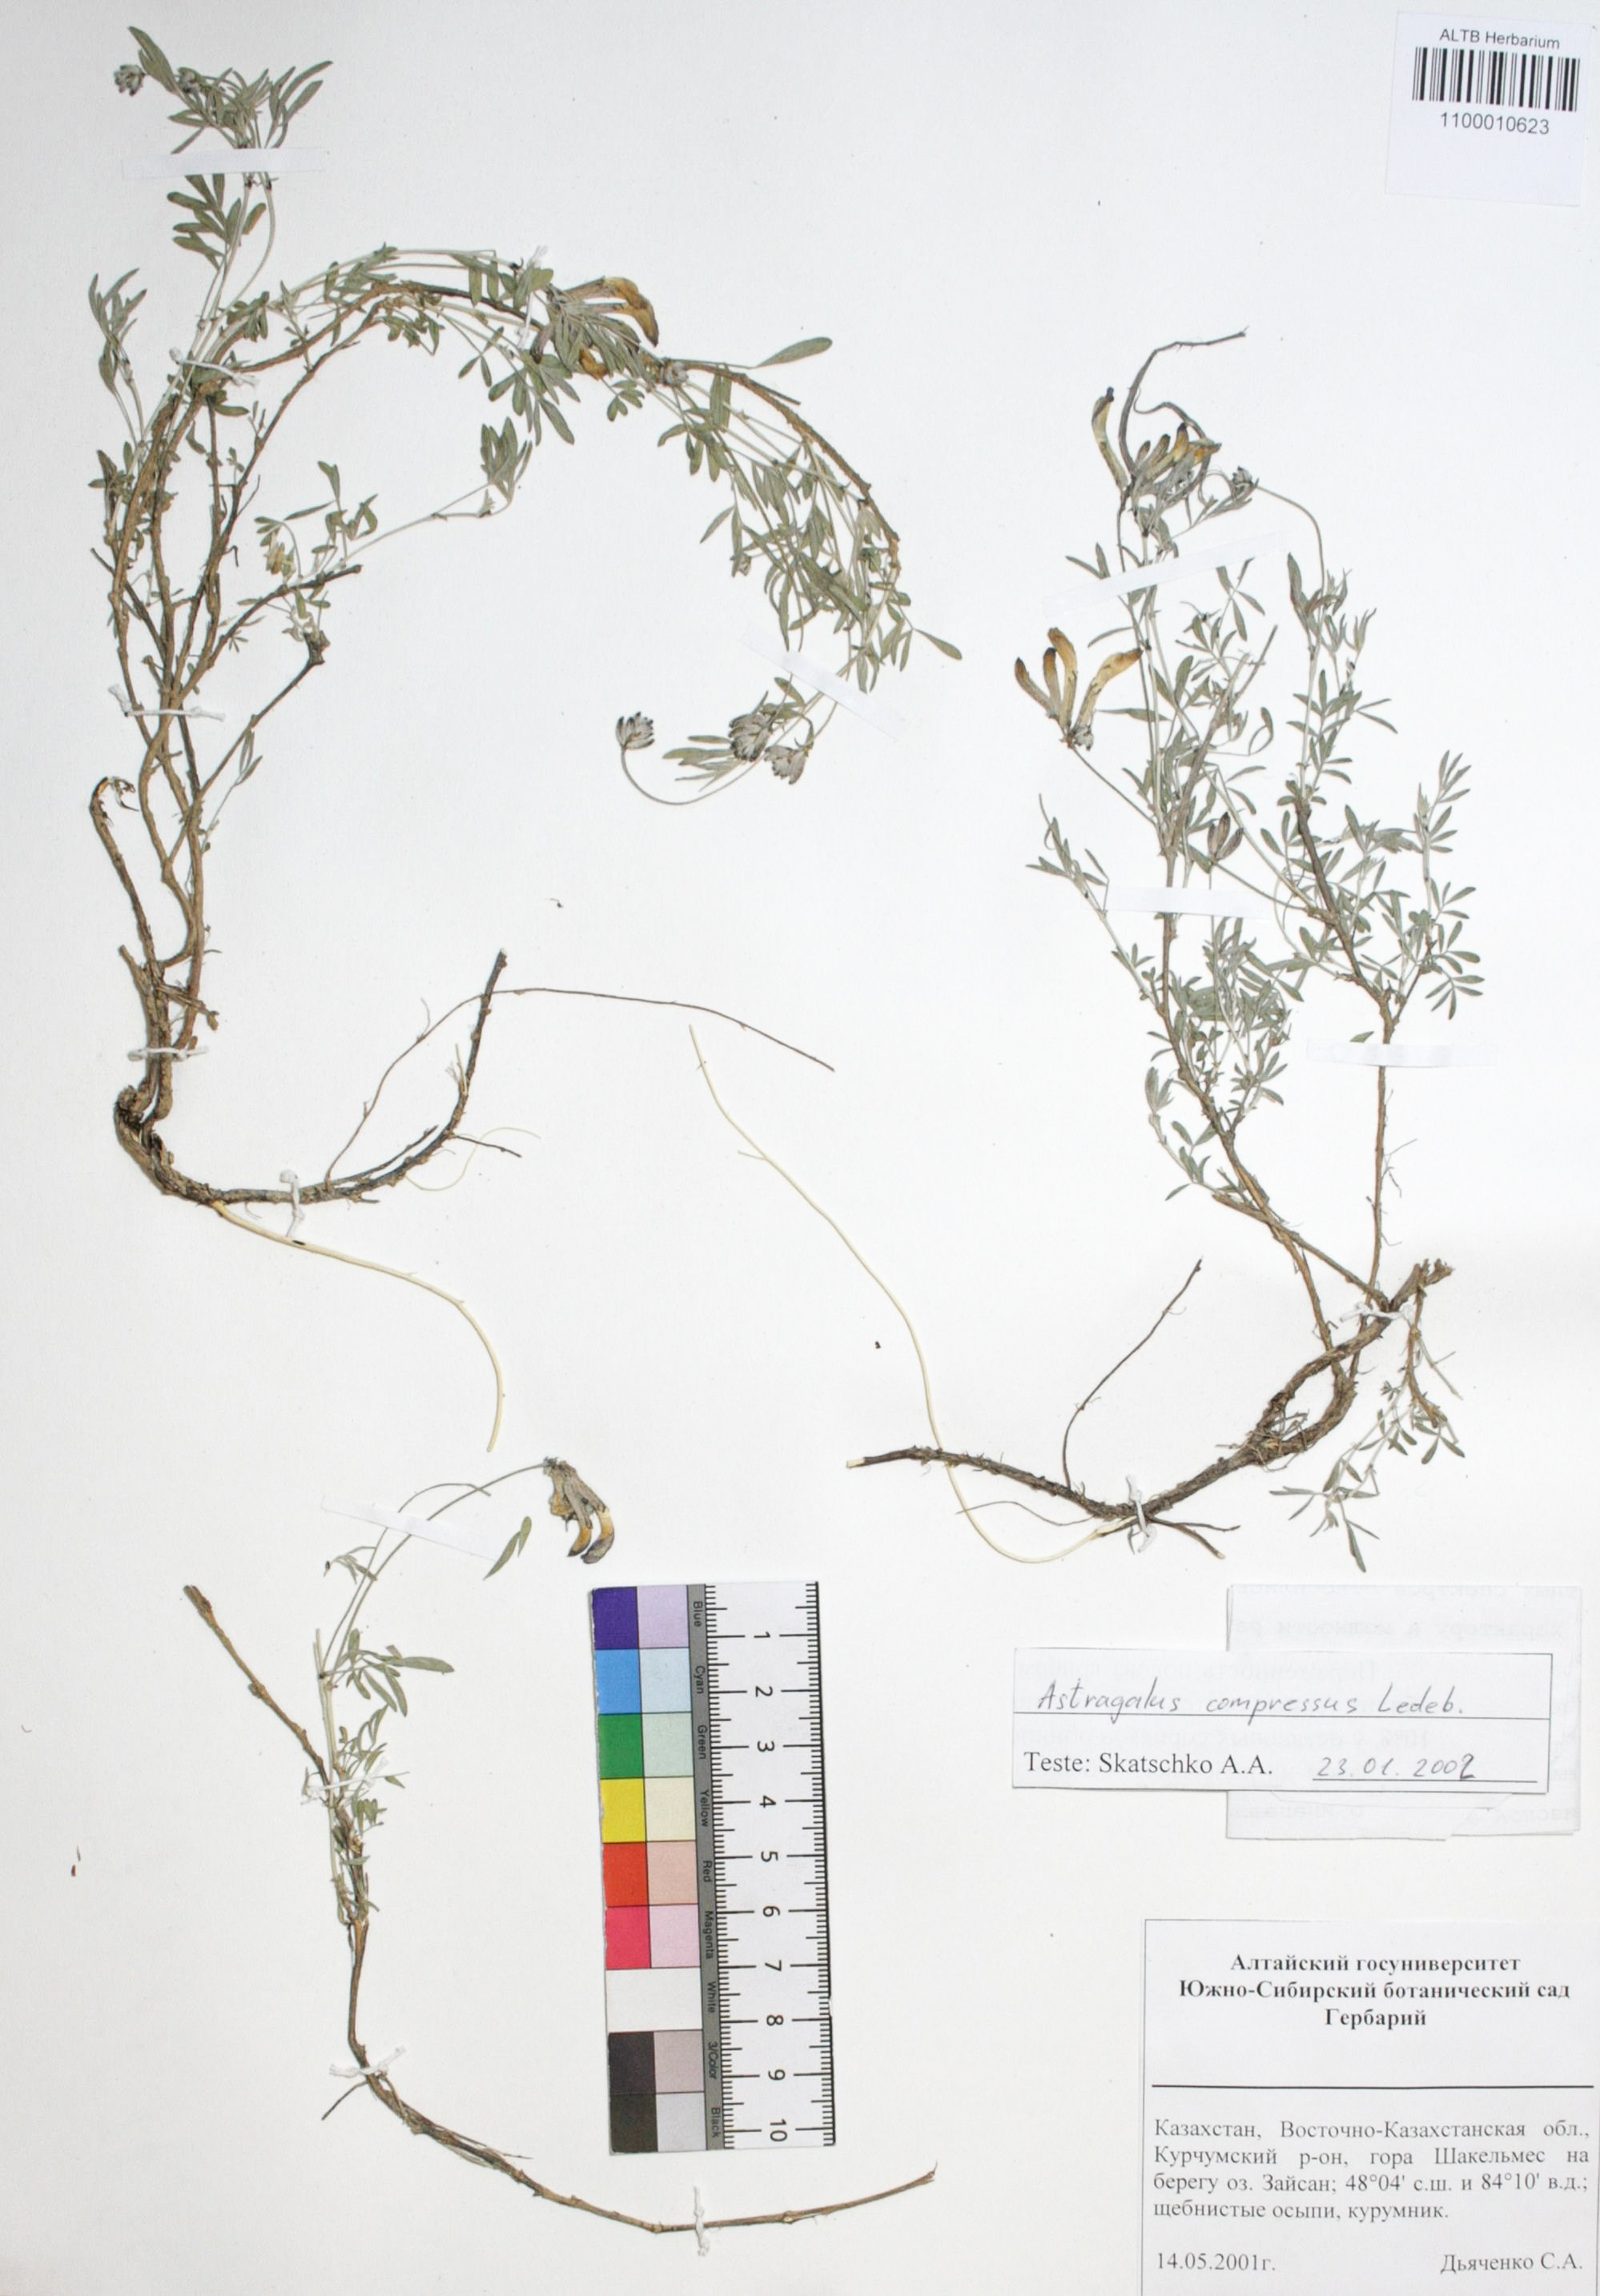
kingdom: Plantae
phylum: Tracheophyta
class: Magnoliopsida
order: Fabales
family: Fabaceae
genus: Astragalus
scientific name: Astragalus compressus
